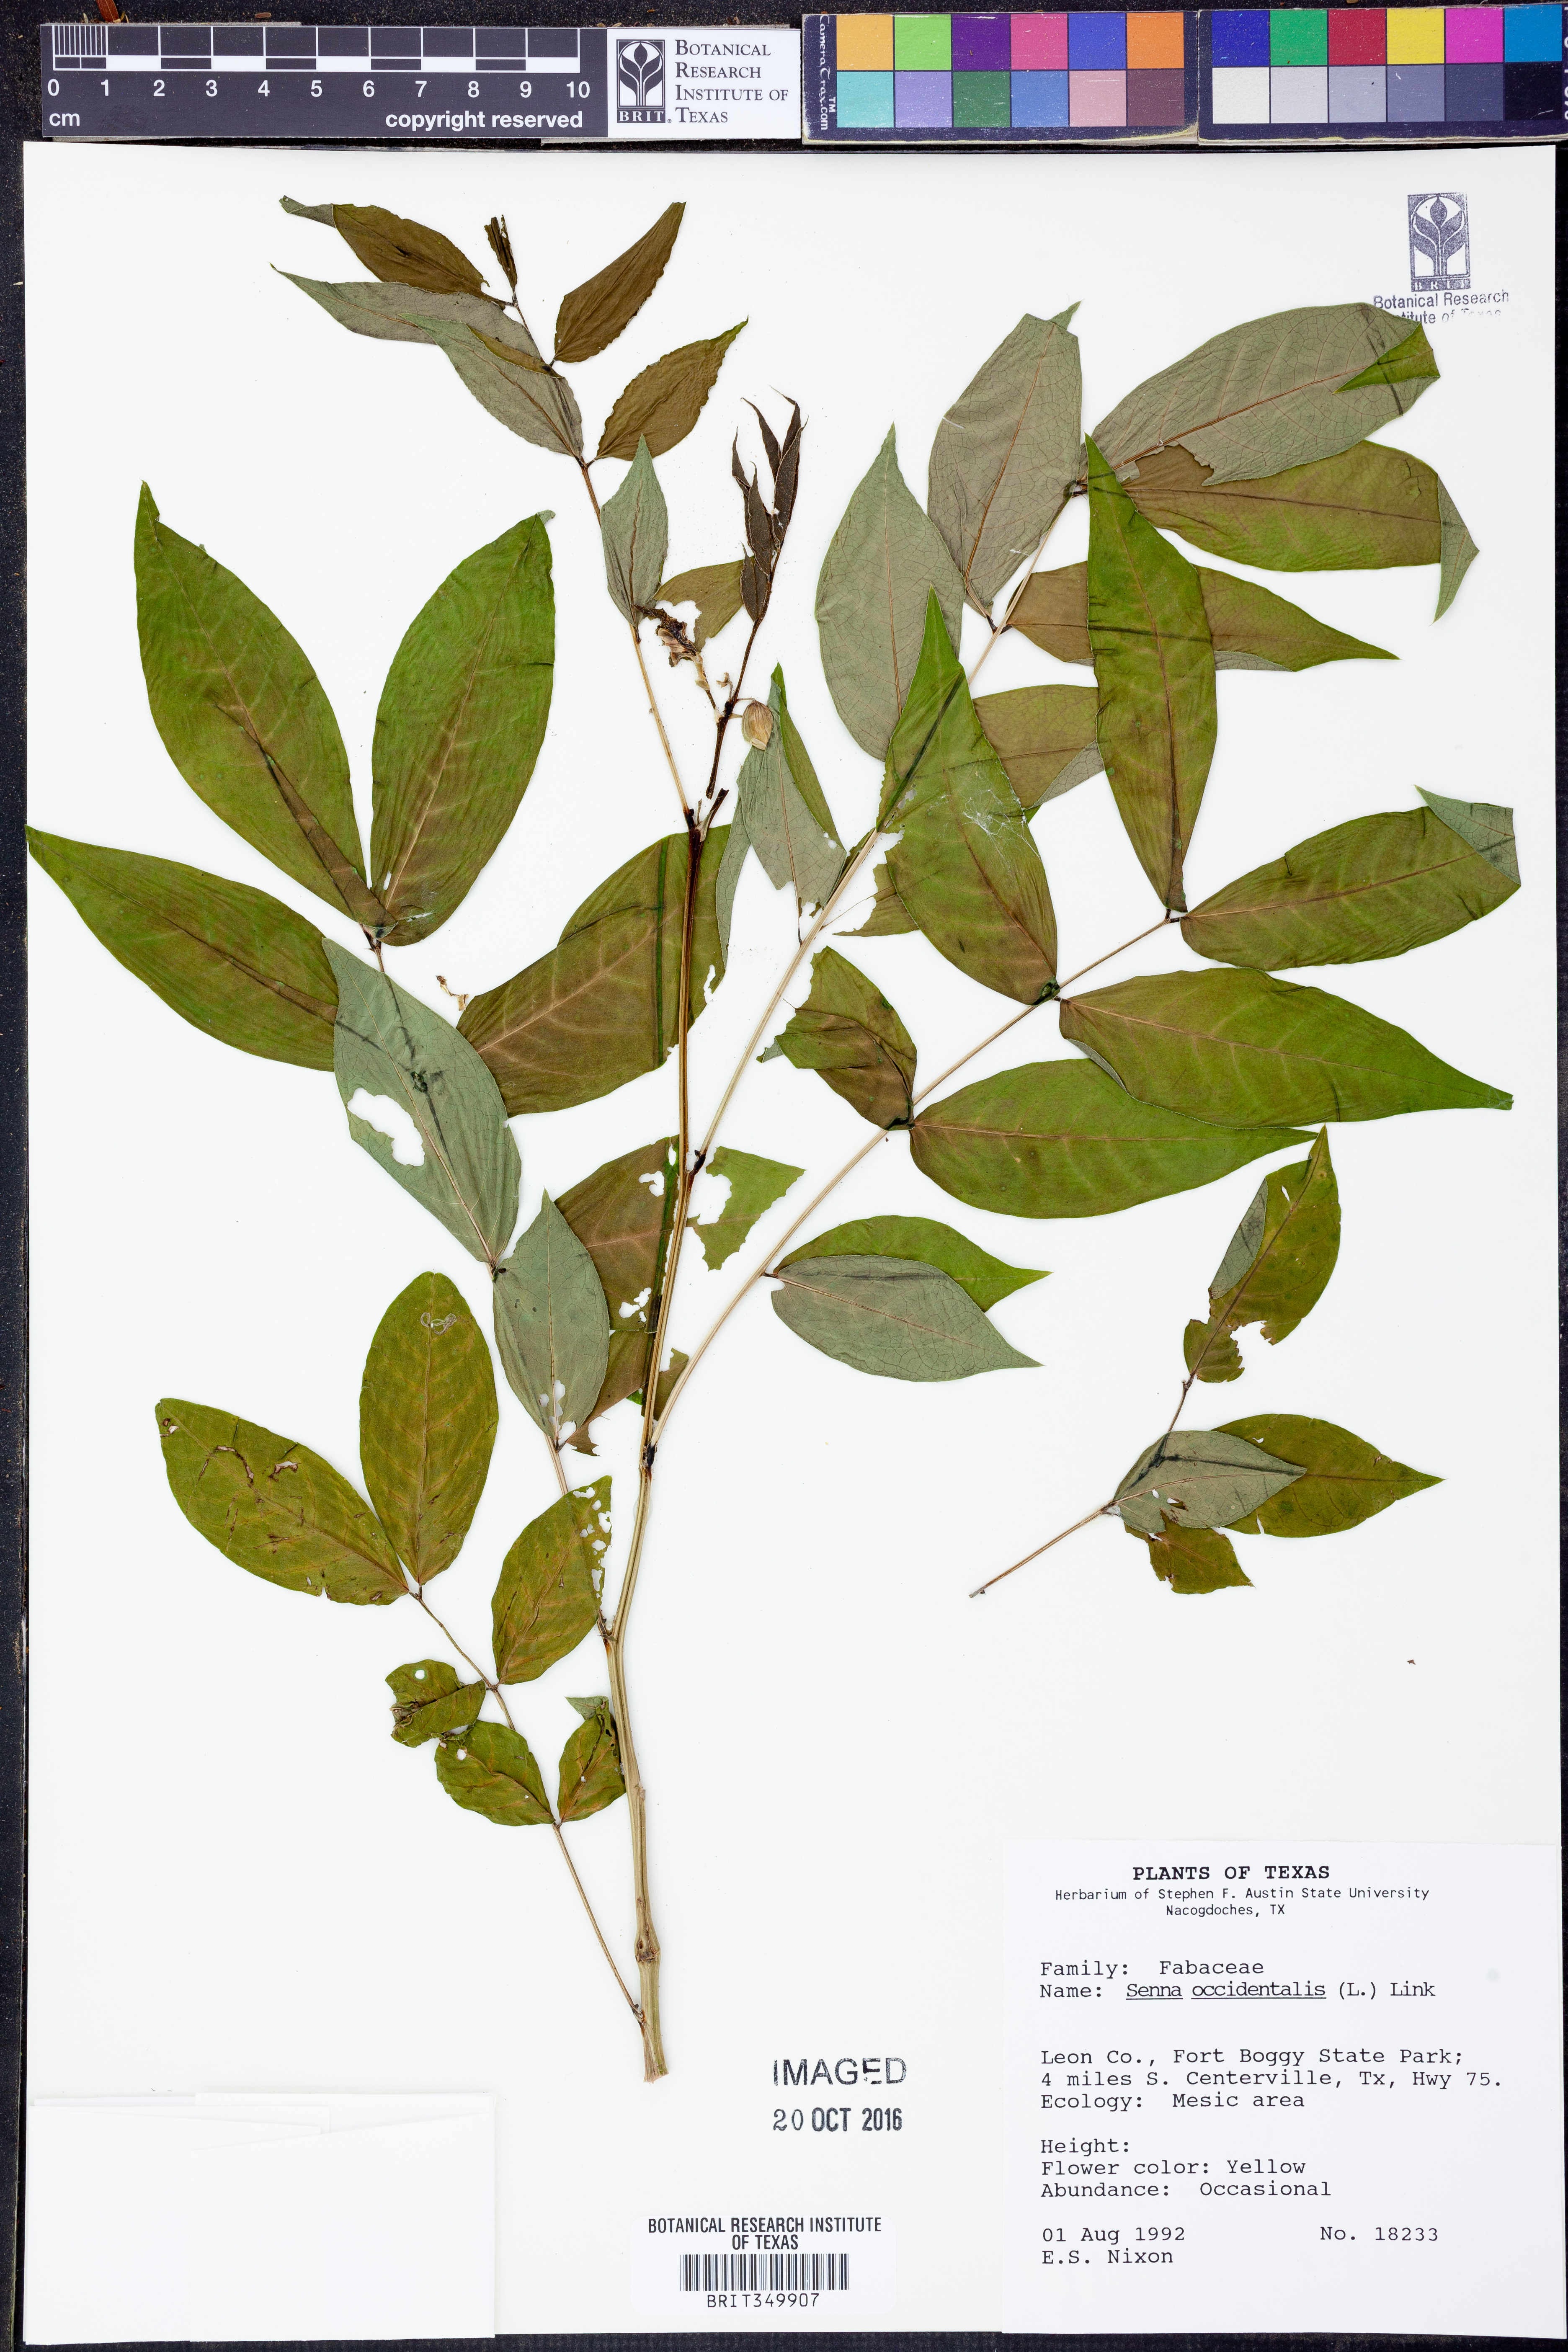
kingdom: Plantae
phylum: Tracheophyta
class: Magnoliopsida
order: Fabales
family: Fabaceae
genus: Senna
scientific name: Senna occidentalis
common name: Septicweed
